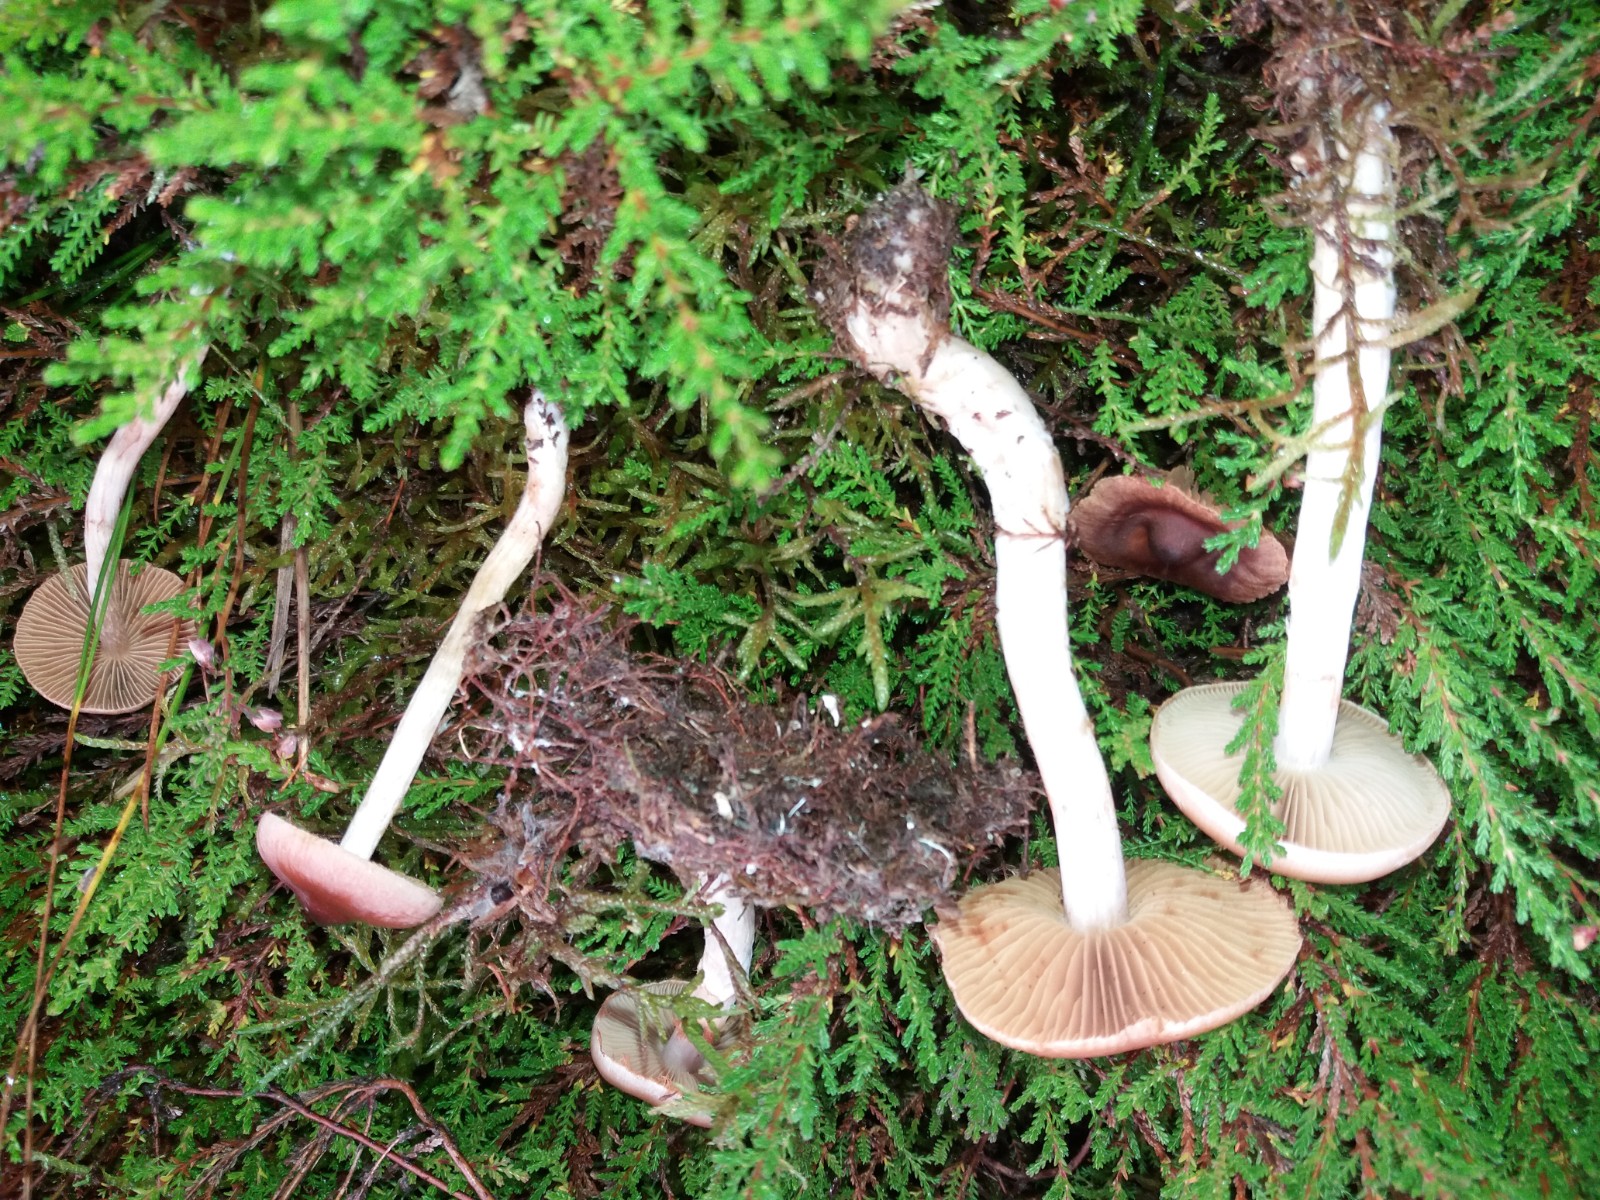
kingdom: Fungi
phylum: Basidiomycota
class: Agaricomycetes
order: Agaricales
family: Cortinariaceae
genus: Cortinarius
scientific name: Cortinarius circinans
